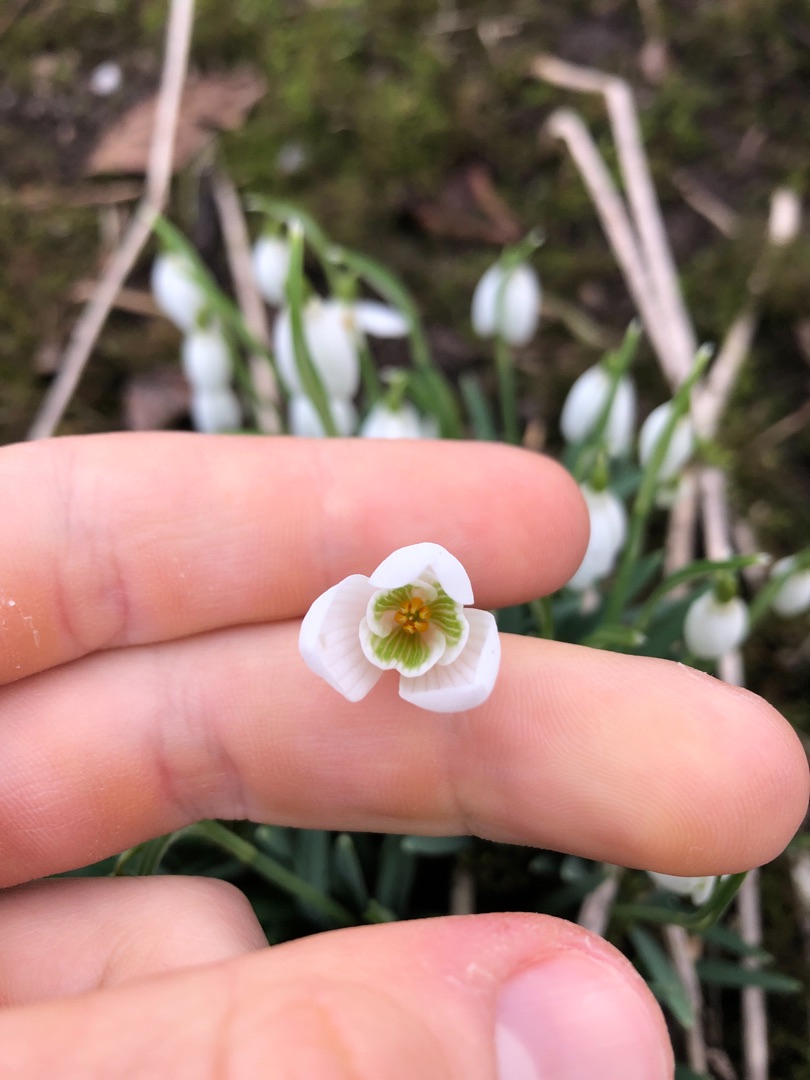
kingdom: Plantae
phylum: Tracheophyta
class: Liliopsida
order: Asparagales
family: Amaryllidaceae
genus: Galanthus
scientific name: Galanthus nivalis
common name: Vintergæk
